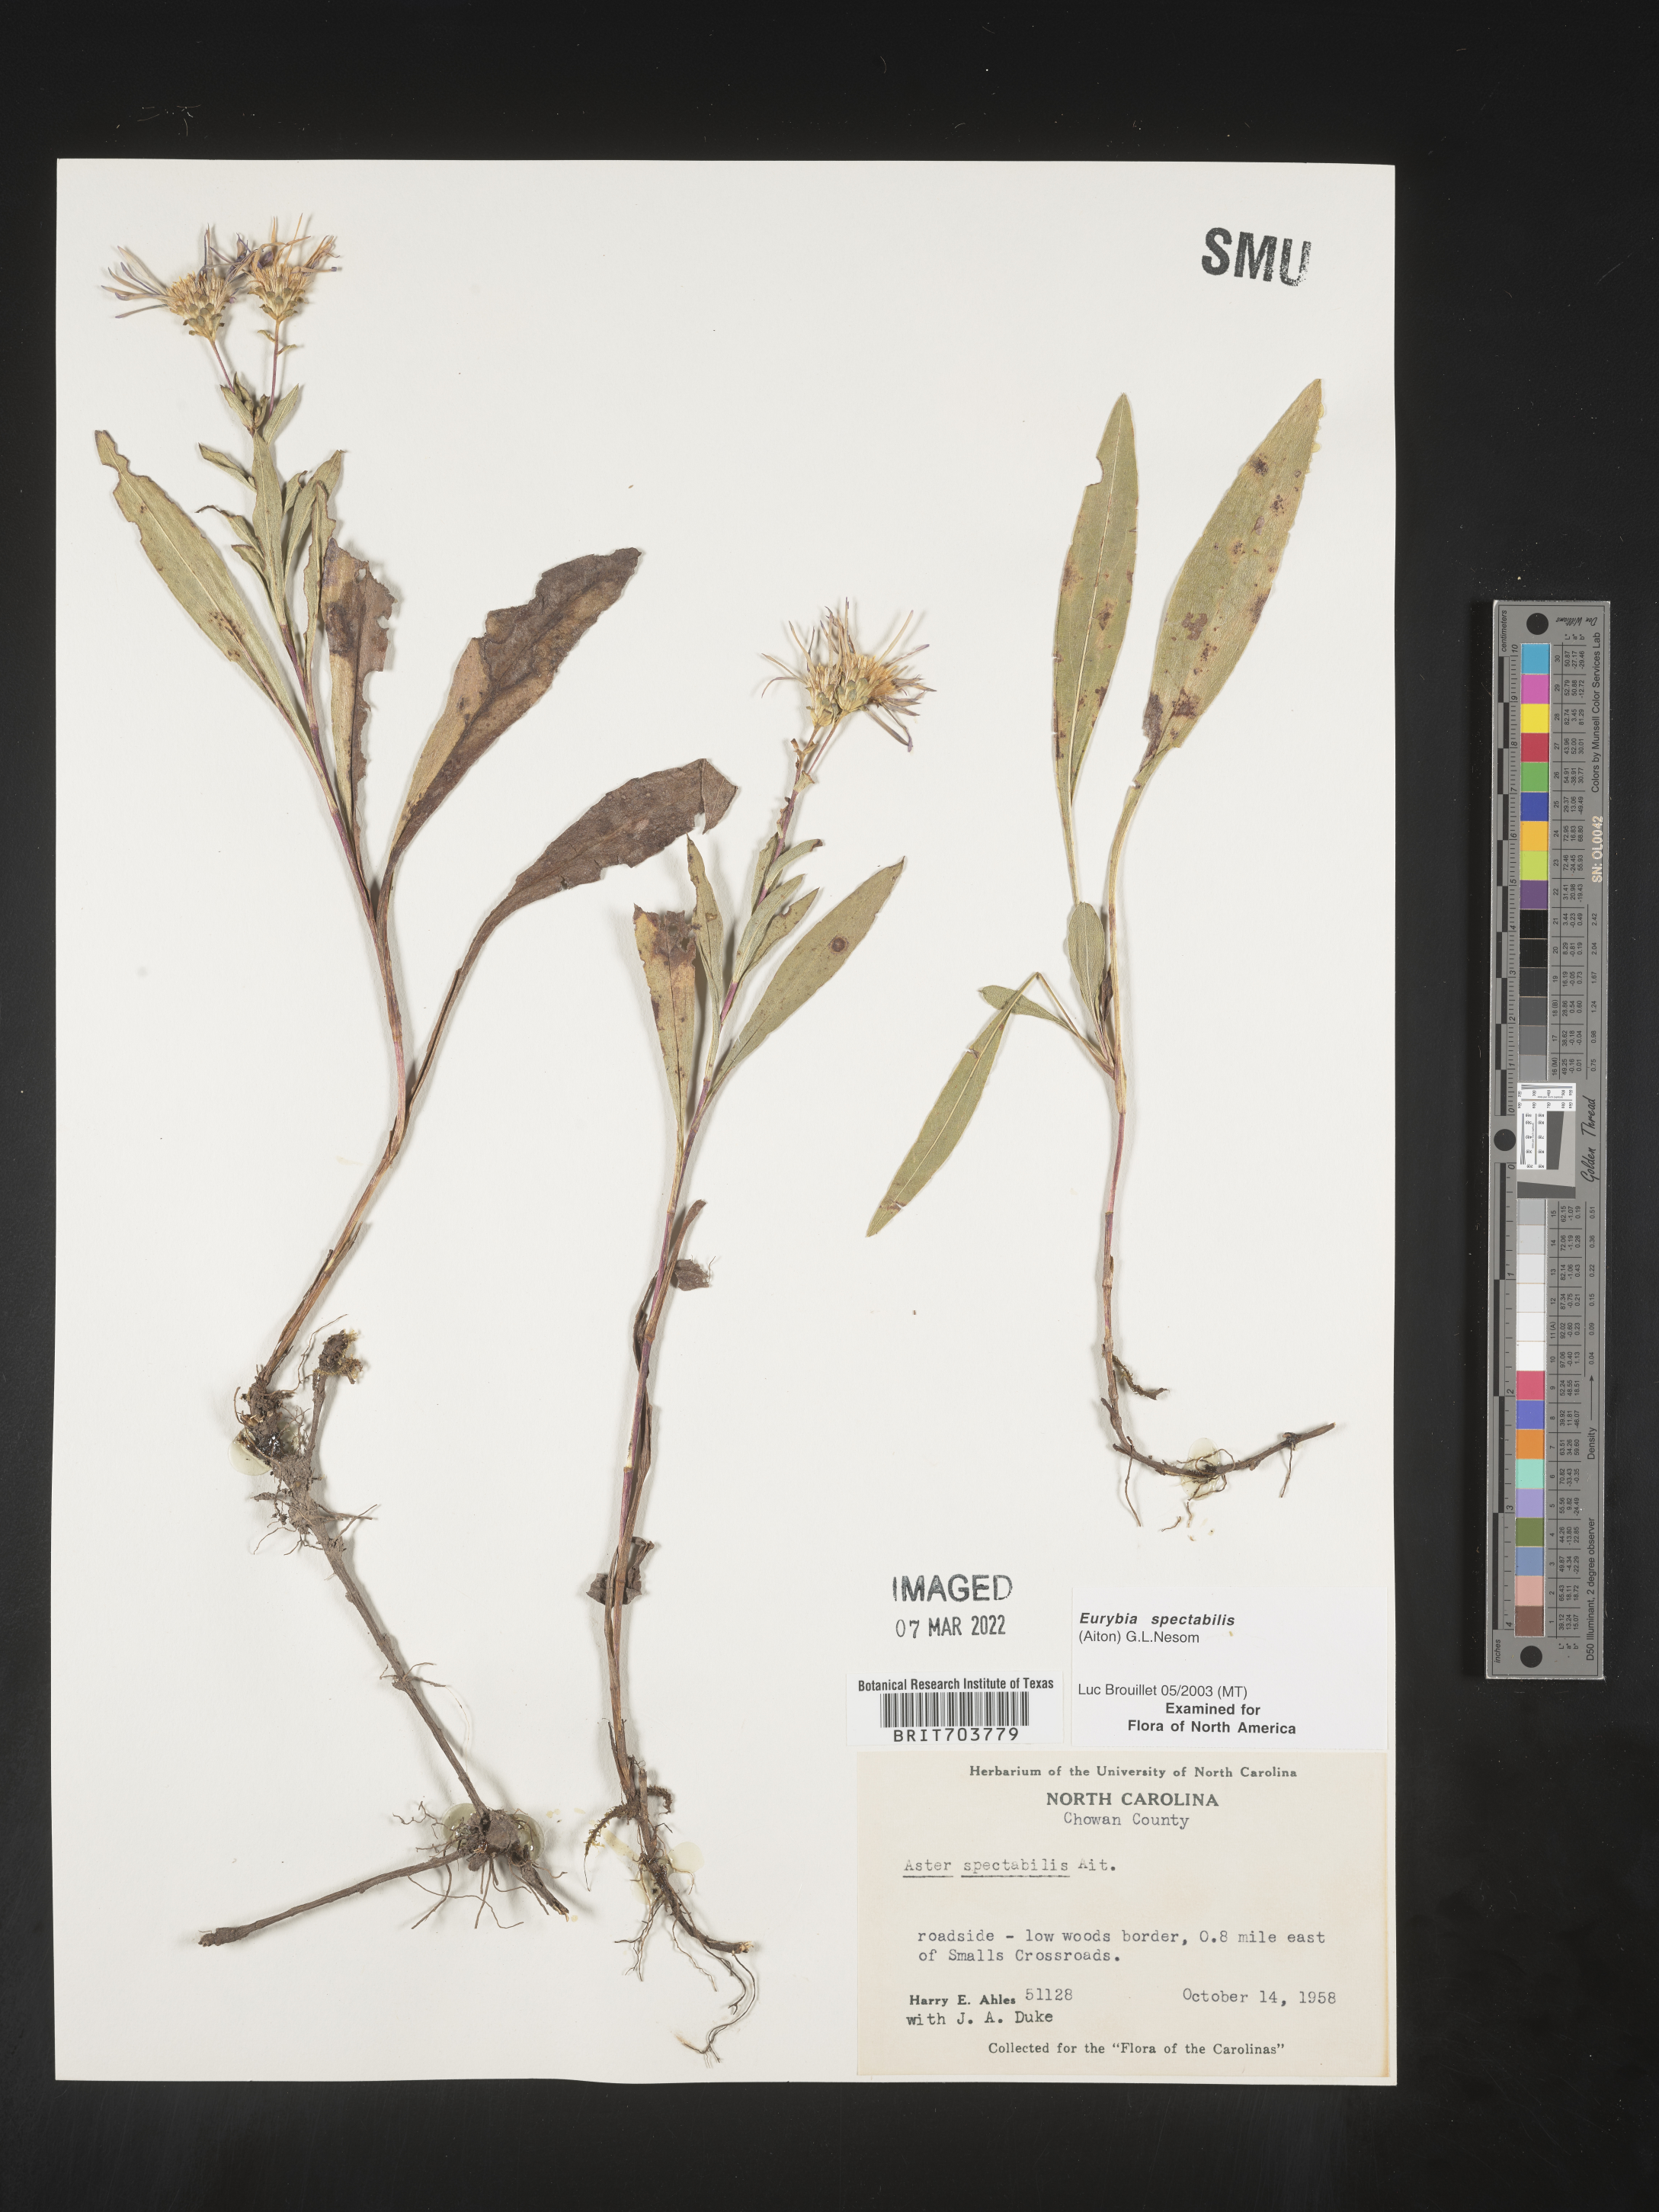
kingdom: Plantae
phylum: Tracheophyta
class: Magnoliopsida
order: Asterales
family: Asteraceae
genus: Eurybia
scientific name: Eurybia spectabilis
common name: Low showy aster
